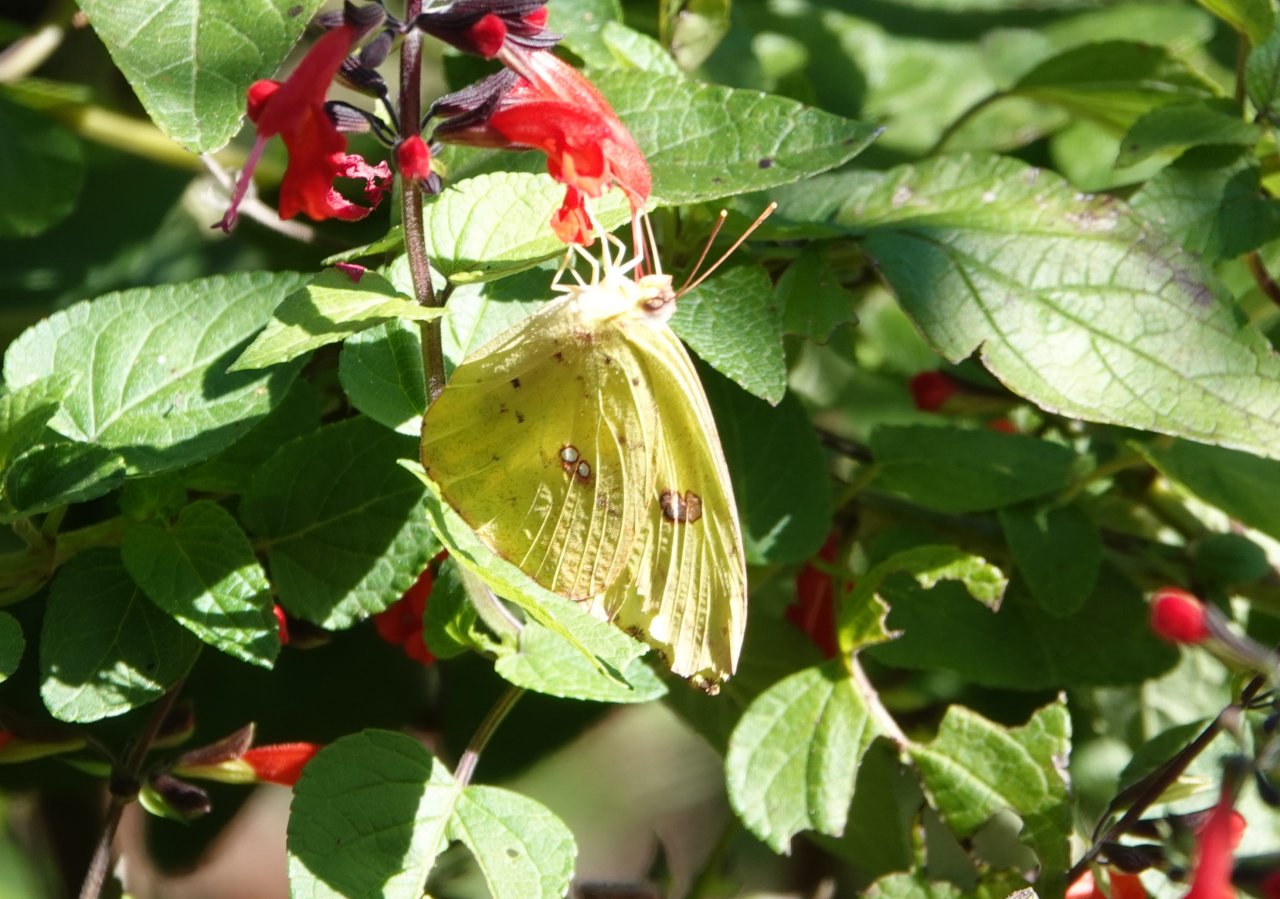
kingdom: Animalia
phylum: Arthropoda
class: Insecta
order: Lepidoptera
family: Pieridae
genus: Phoebis
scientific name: Phoebis sennae
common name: Cloudless Sulphur
